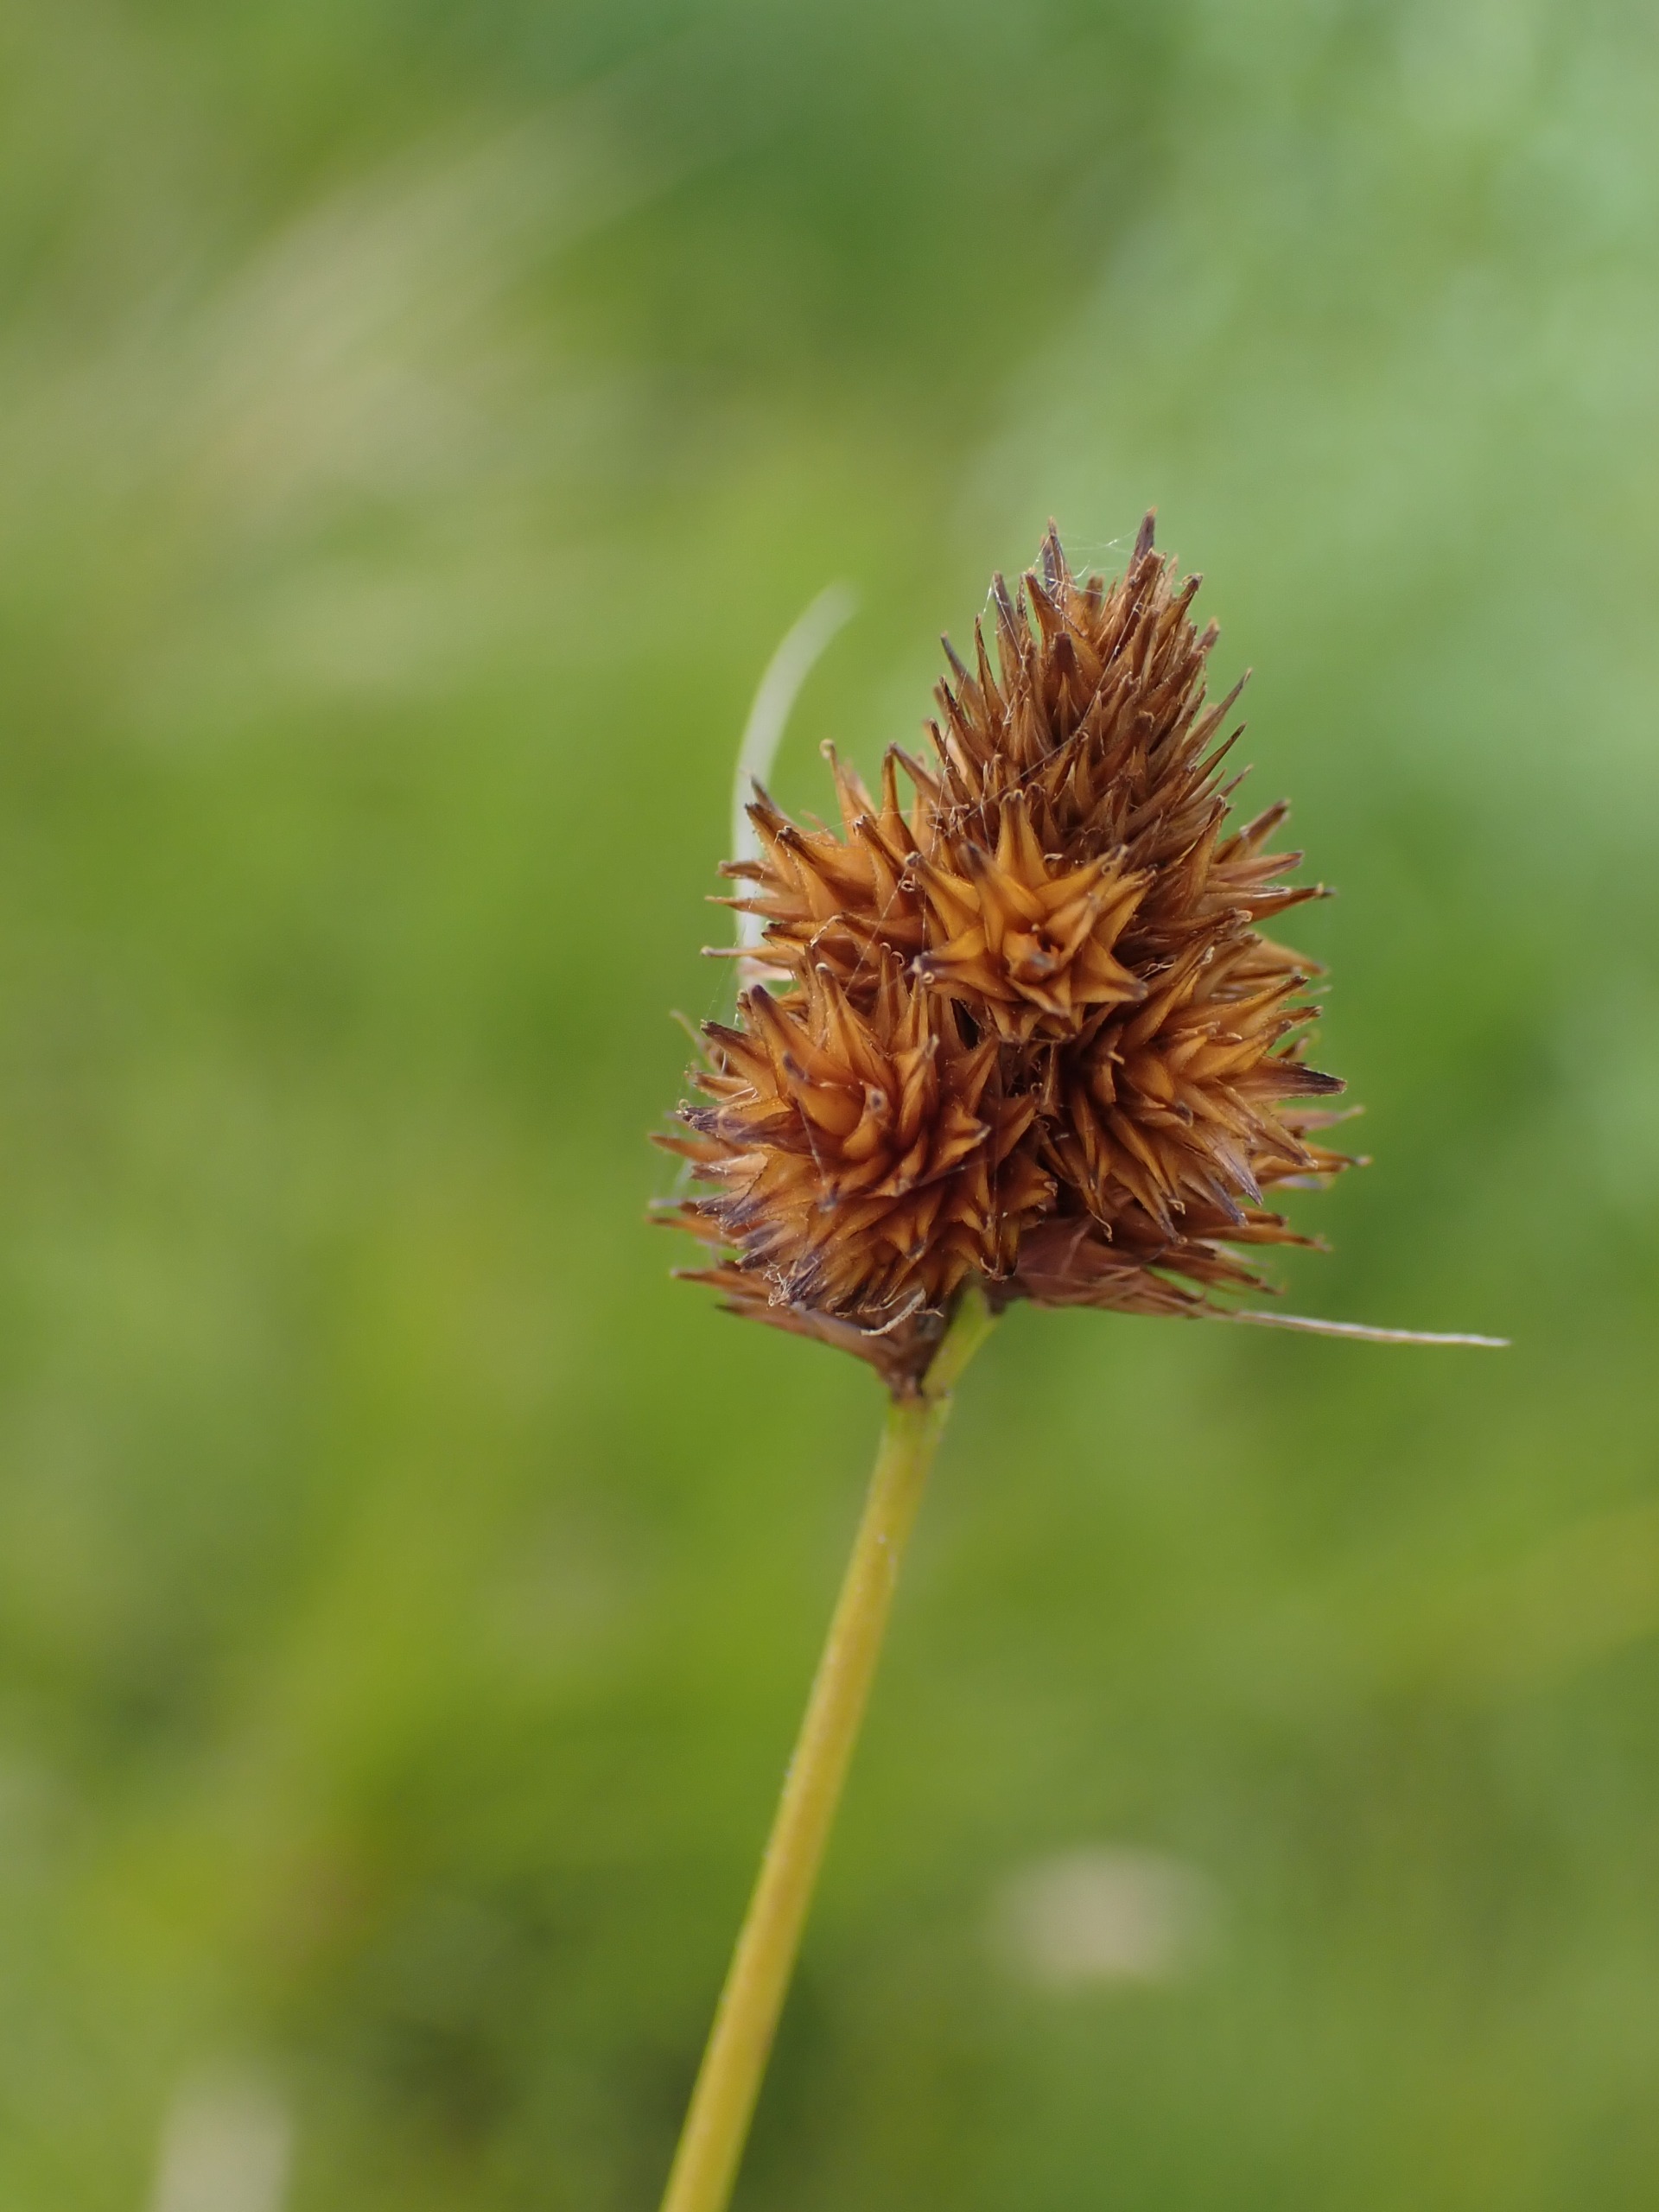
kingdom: Plantae
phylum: Tracheophyta
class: Liliopsida
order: Poales
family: Cyperaceae
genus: Carex
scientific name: Carex bebbii
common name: Pyramide-star
